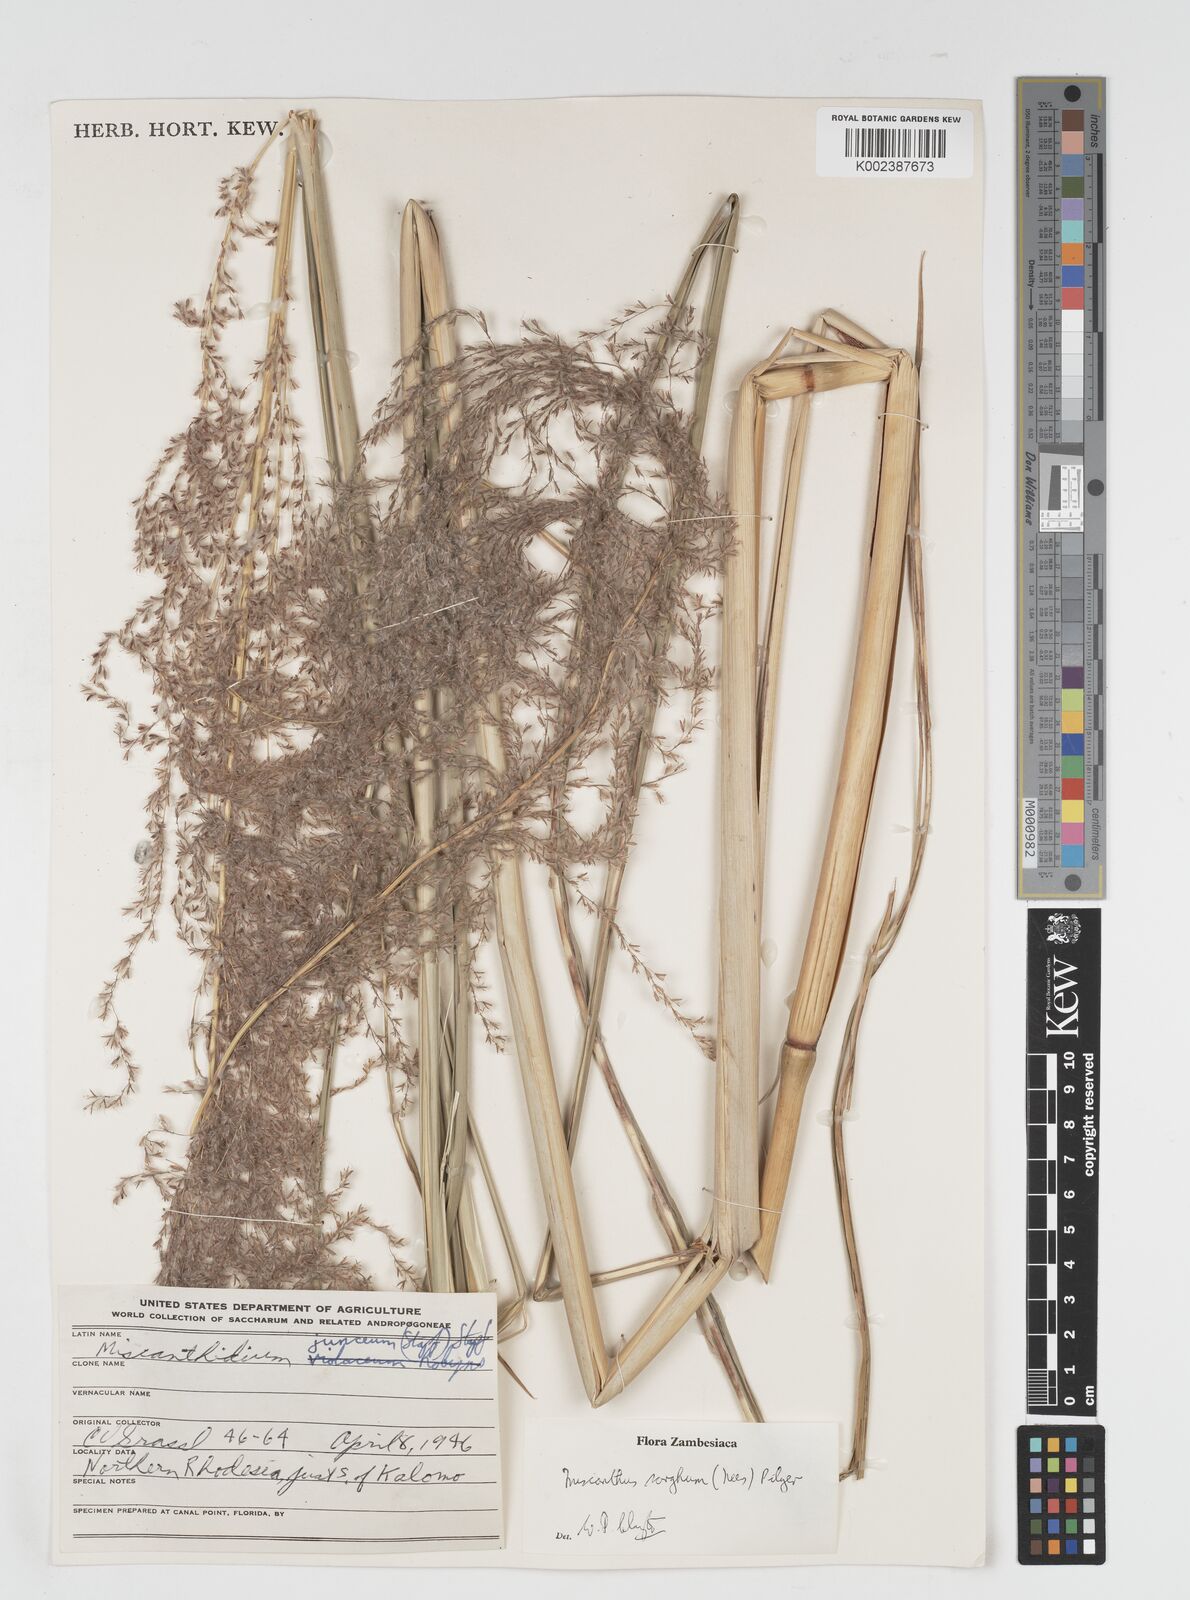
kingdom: Plantae
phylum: Tracheophyta
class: Liliopsida
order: Poales
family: Poaceae
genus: Miscanthus
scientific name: Miscanthus ecklonii
